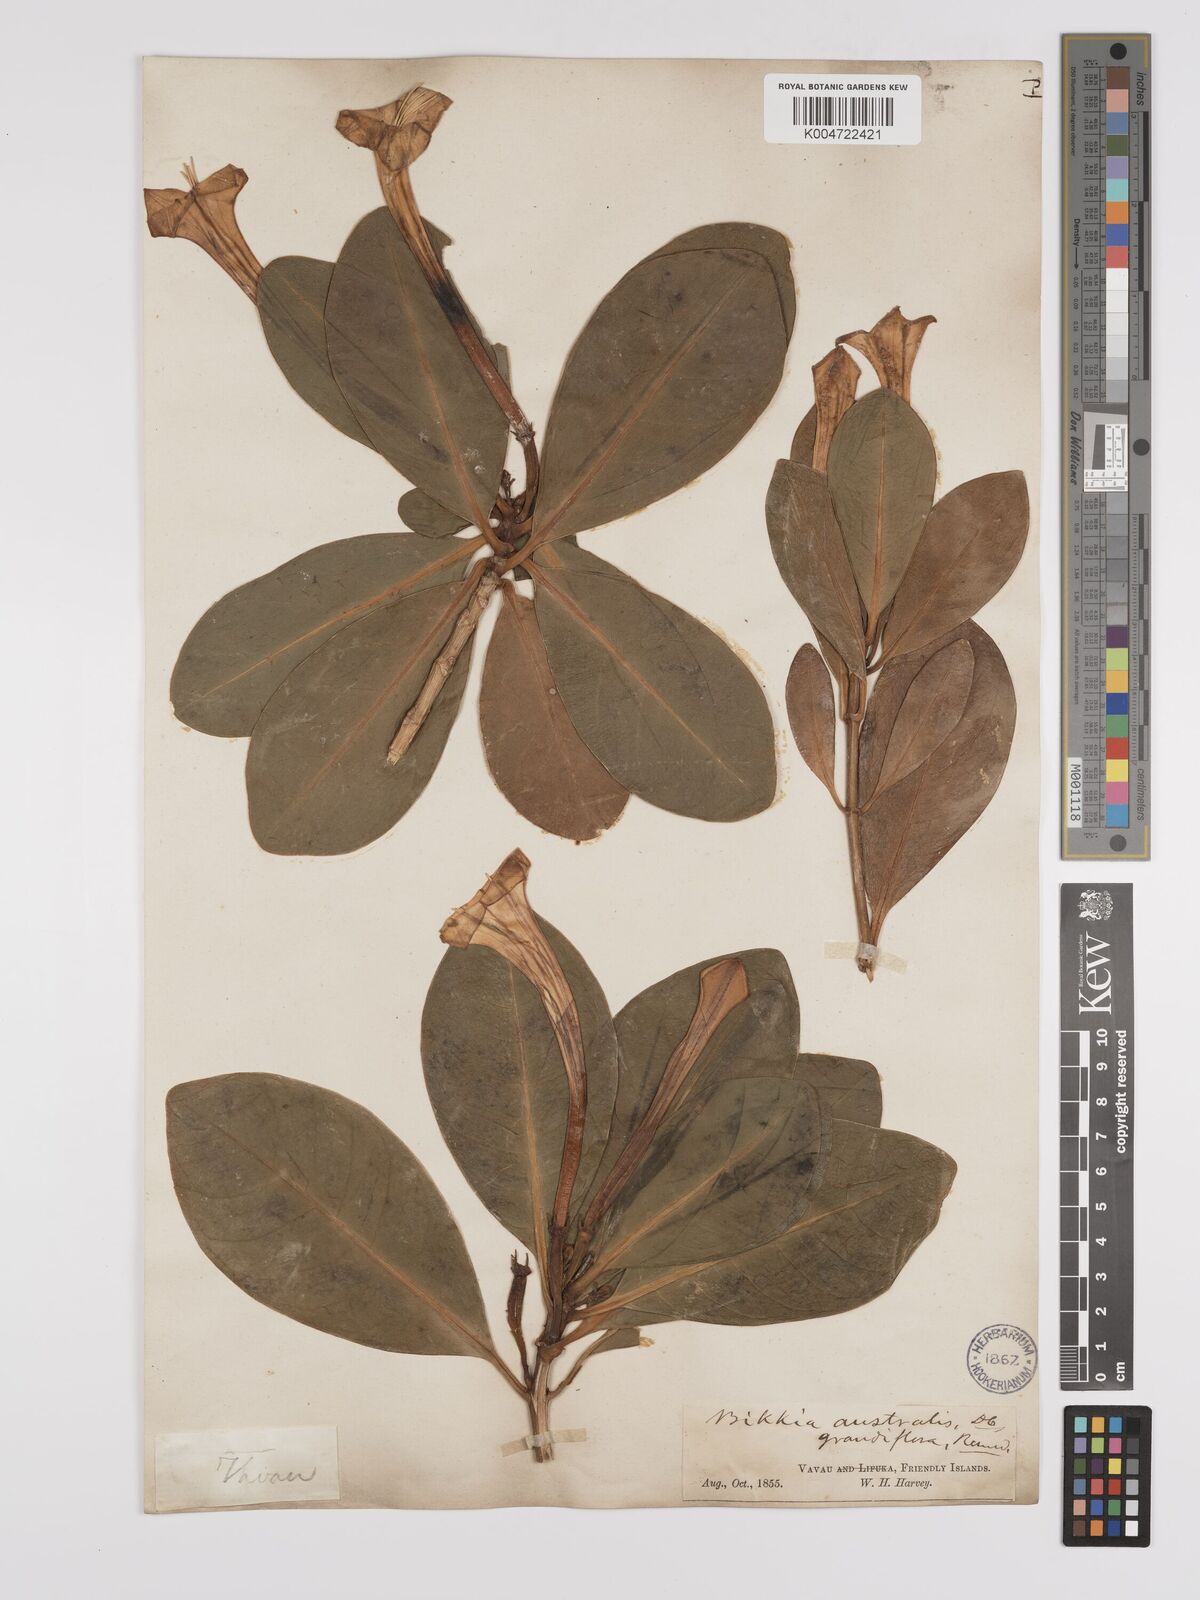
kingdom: Plantae
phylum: Tracheophyta
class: Magnoliopsida
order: Gentianales
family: Rubiaceae
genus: Bikkia
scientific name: Bikkia
